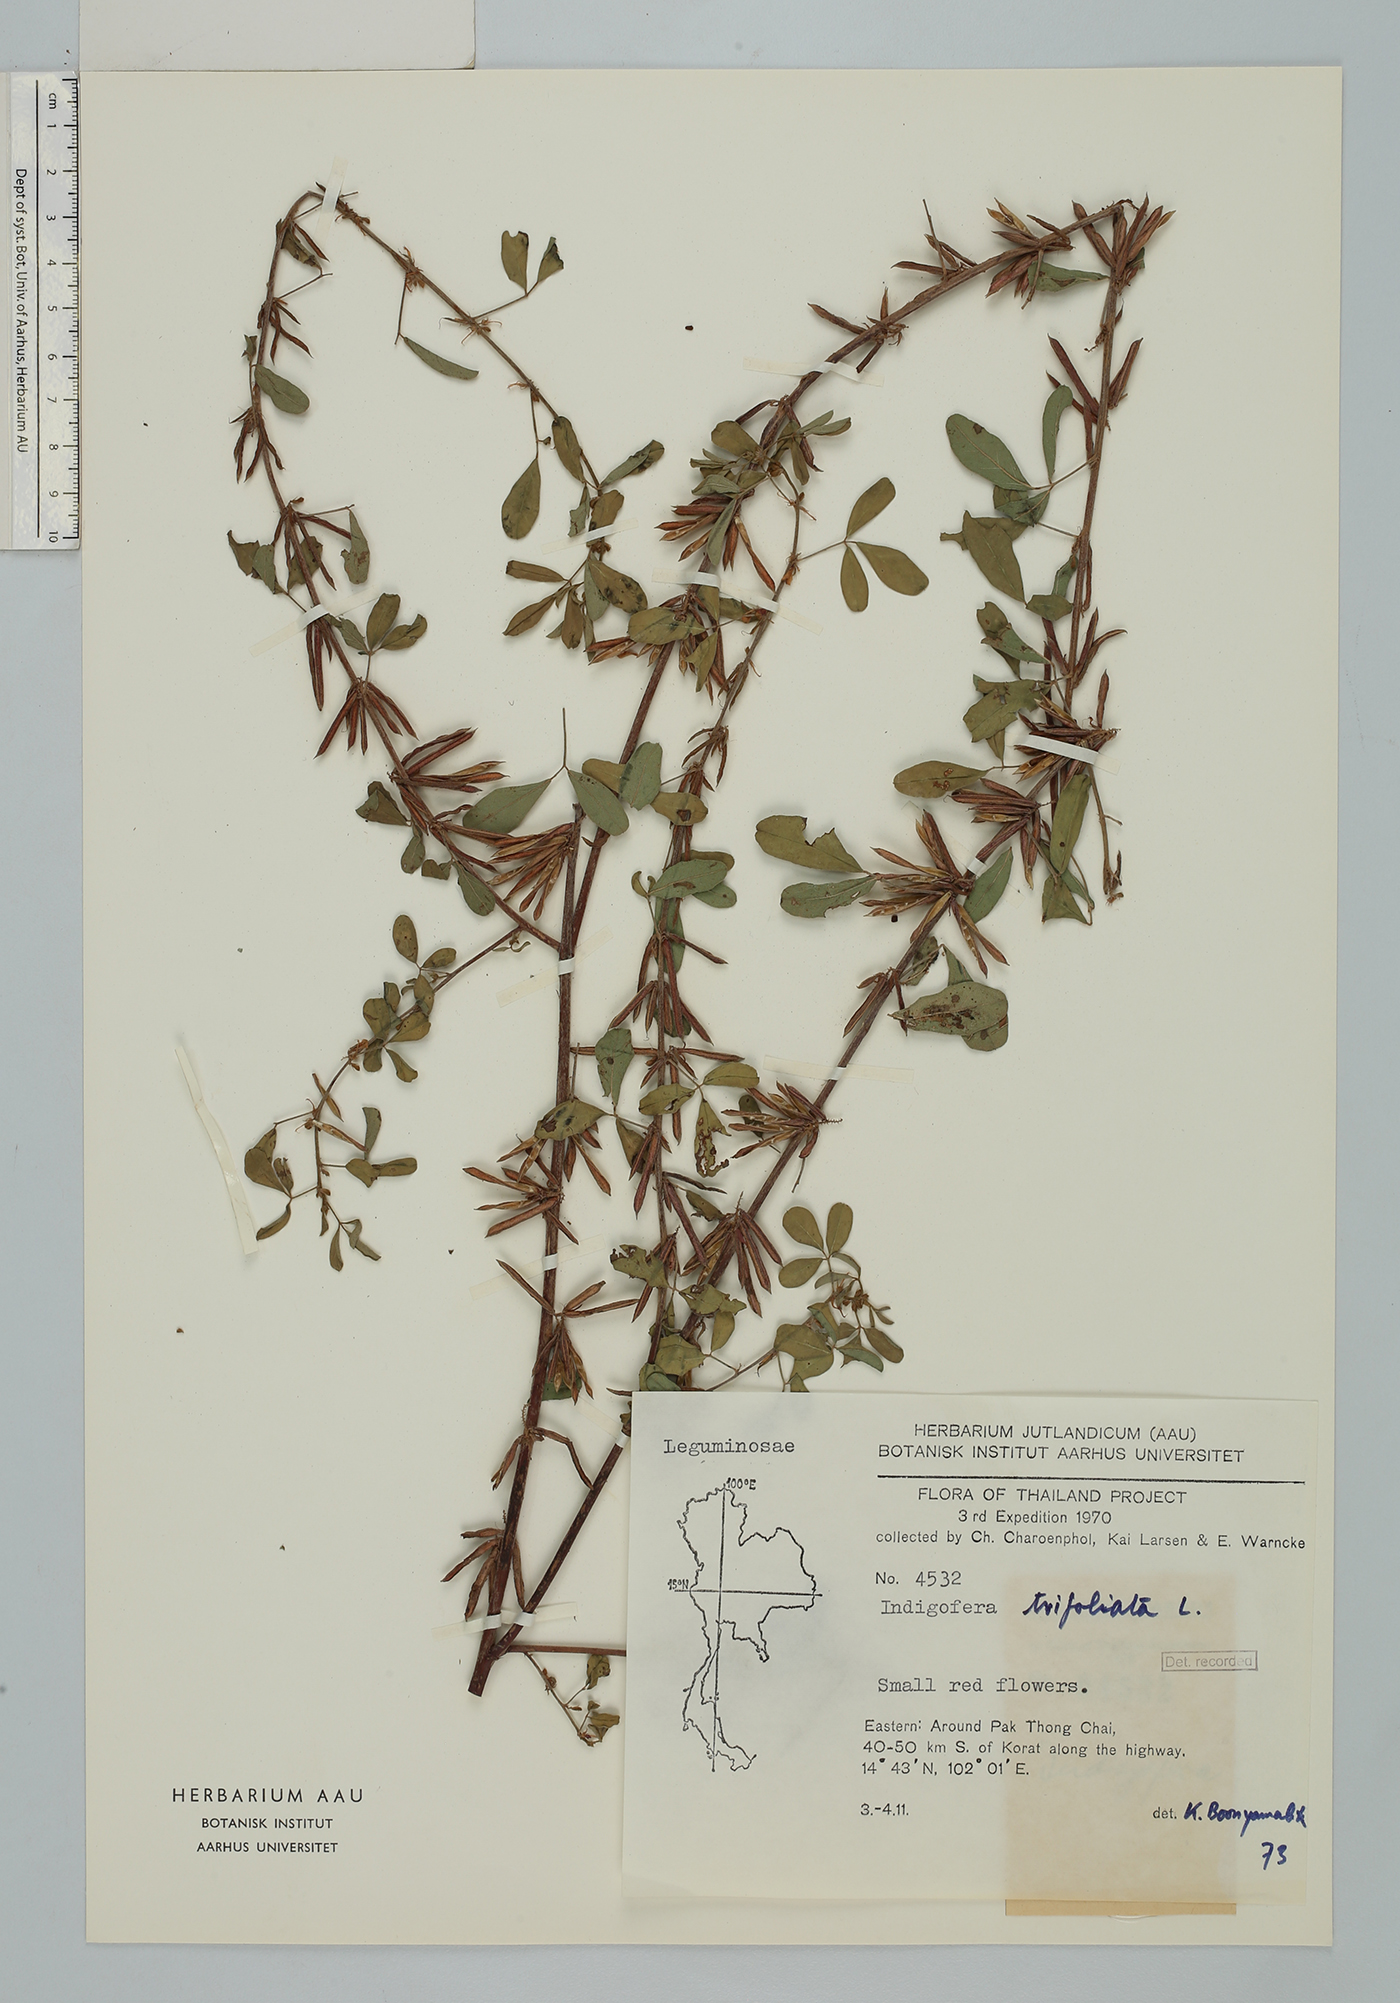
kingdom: Plantae
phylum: Tracheophyta
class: Magnoliopsida
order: Fabales
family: Fabaceae
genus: Indigofera
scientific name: Indigofera trifoliata
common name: Threeleaf indigo
